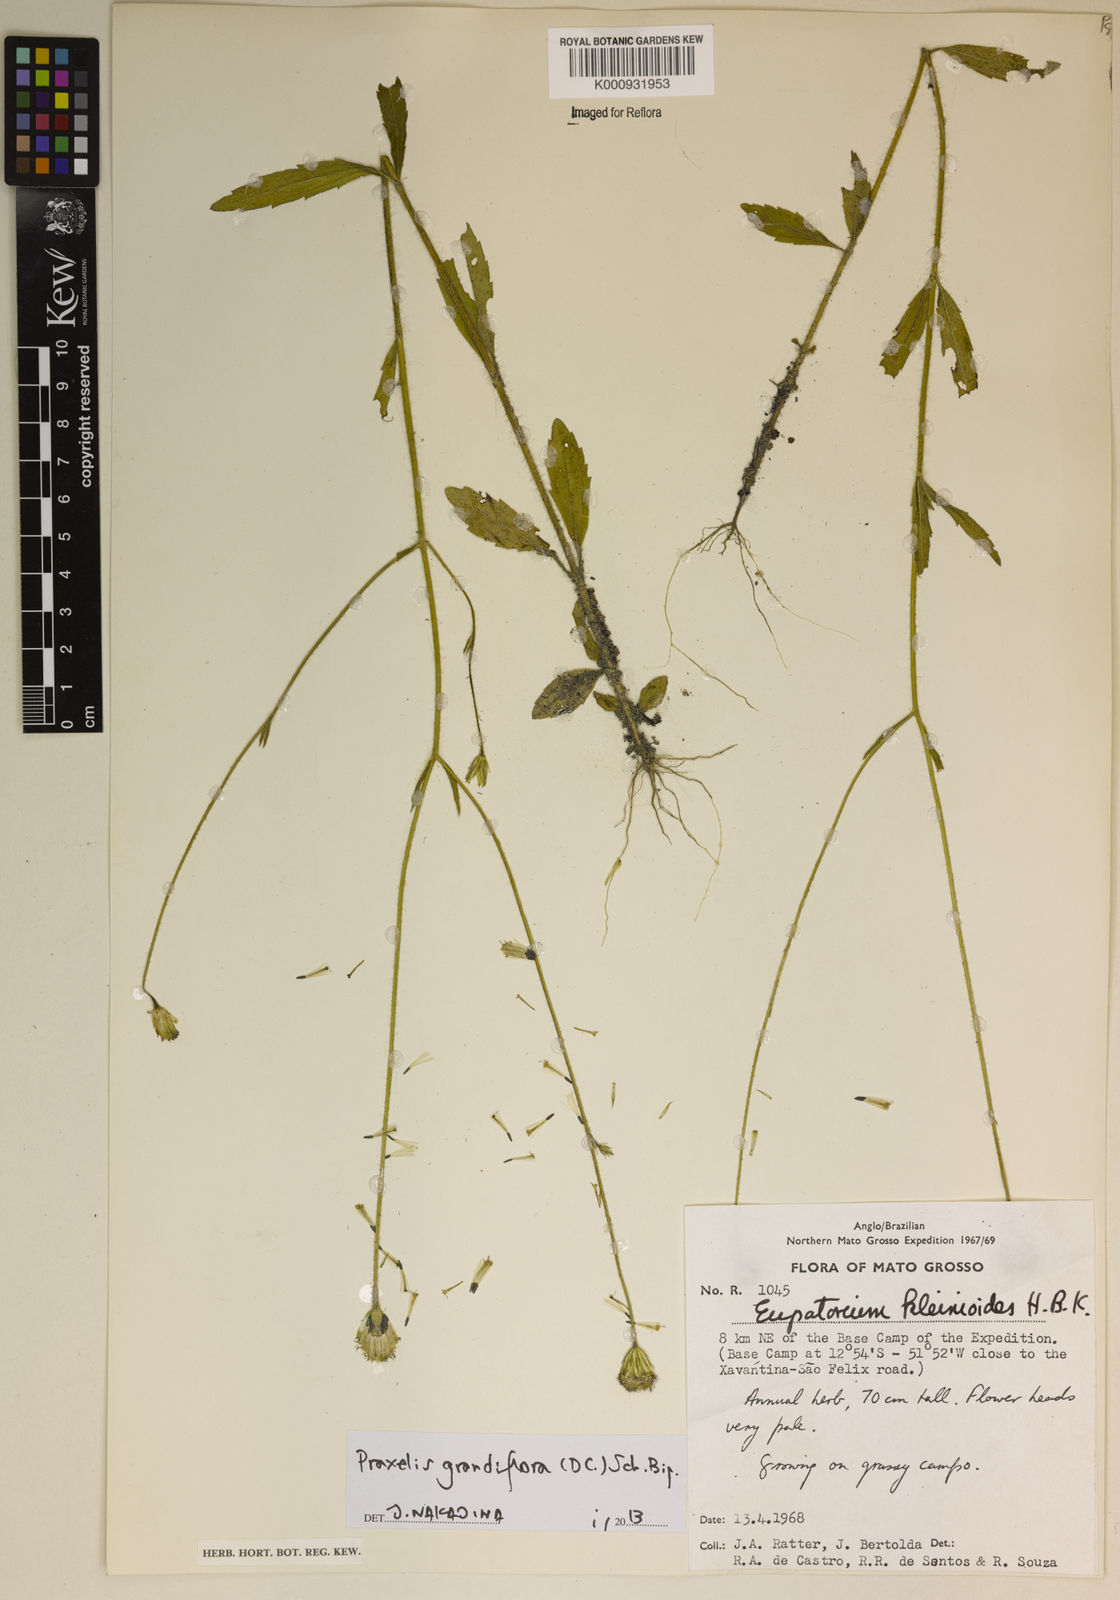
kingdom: Plantae
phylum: Tracheophyta
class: Magnoliopsida
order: Asterales
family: Asteraceae
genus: Praxelis
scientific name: Praxelis grandiflora
